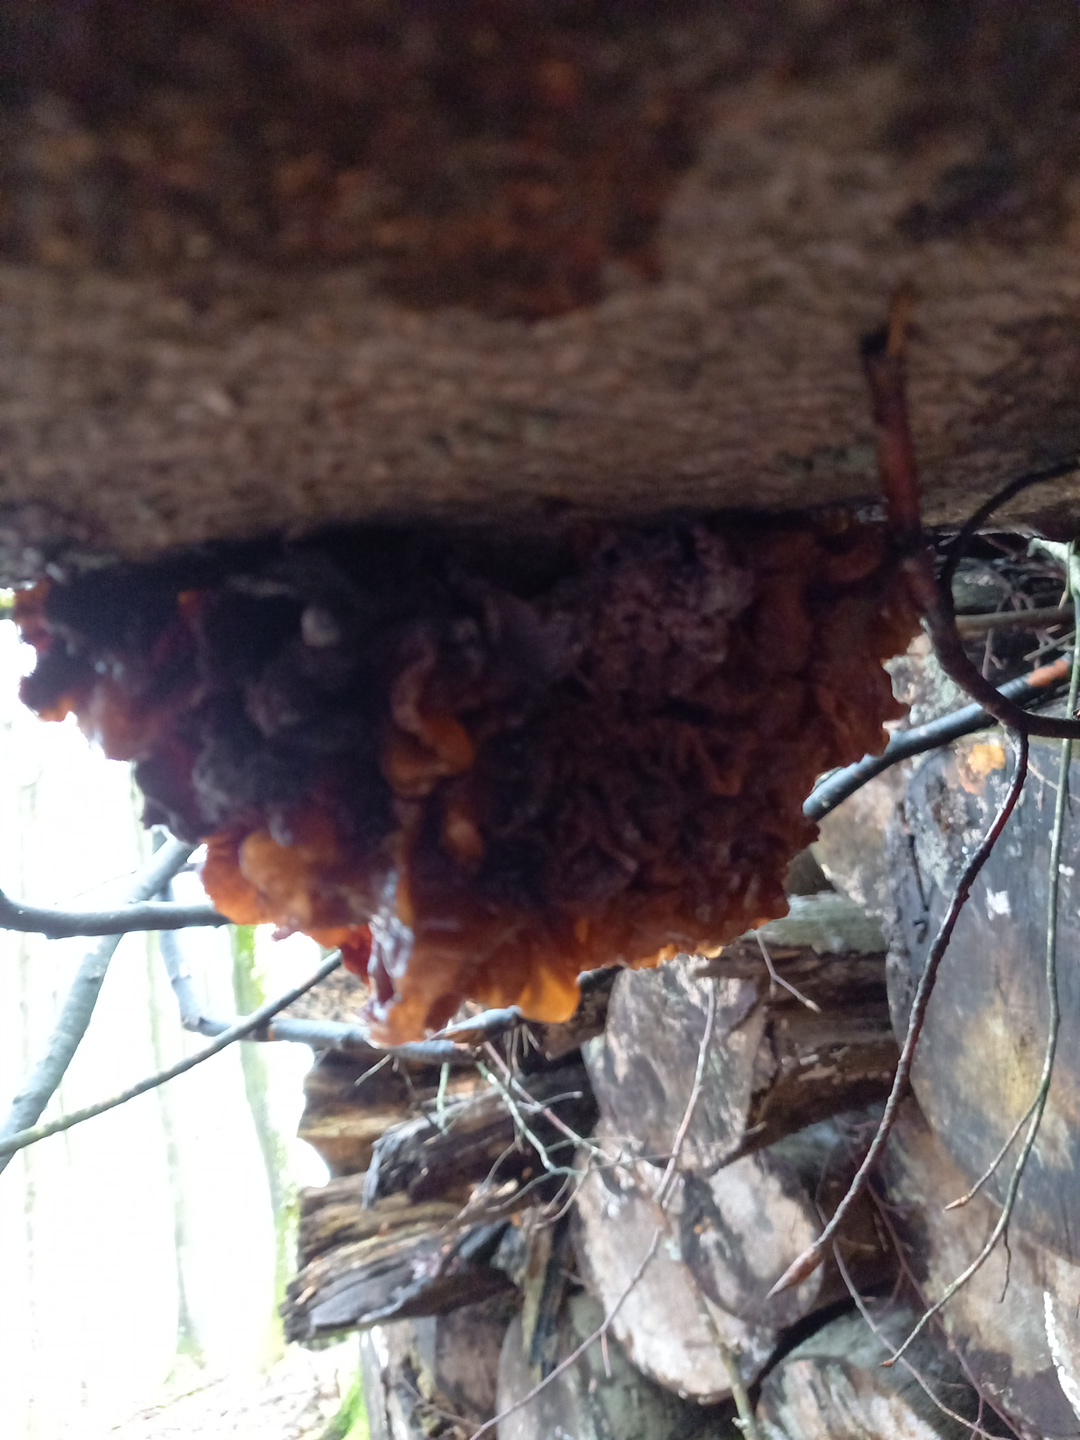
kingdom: Fungi
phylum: Basidiomycota
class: Tremellomycetes
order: Tremellales
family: Tremellaceae
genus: Phaeotremella
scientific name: Phaeotremella frondosa
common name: kæmpe-bævresvamp
